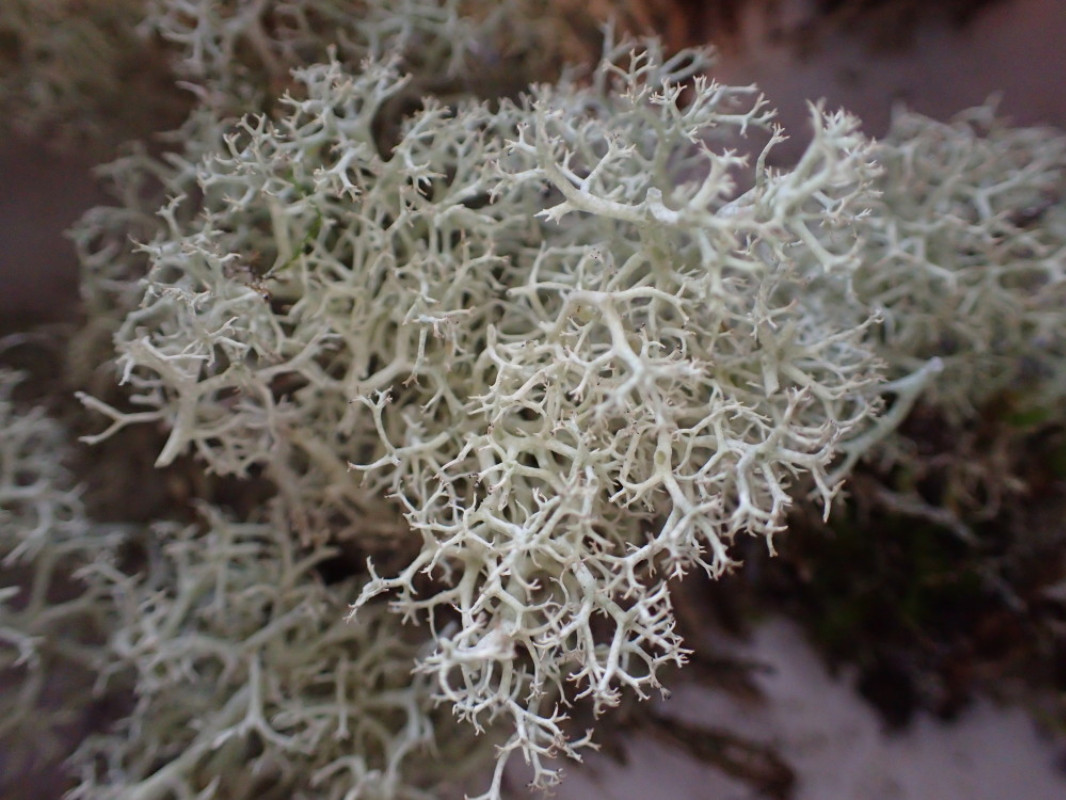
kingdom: Fungi
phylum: Ascomycota
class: Lecanoromycetes
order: Lecanorales
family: Cladoniaceae
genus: Cladonia
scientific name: Cladonia portentosa
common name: hede-rensdyrlav
